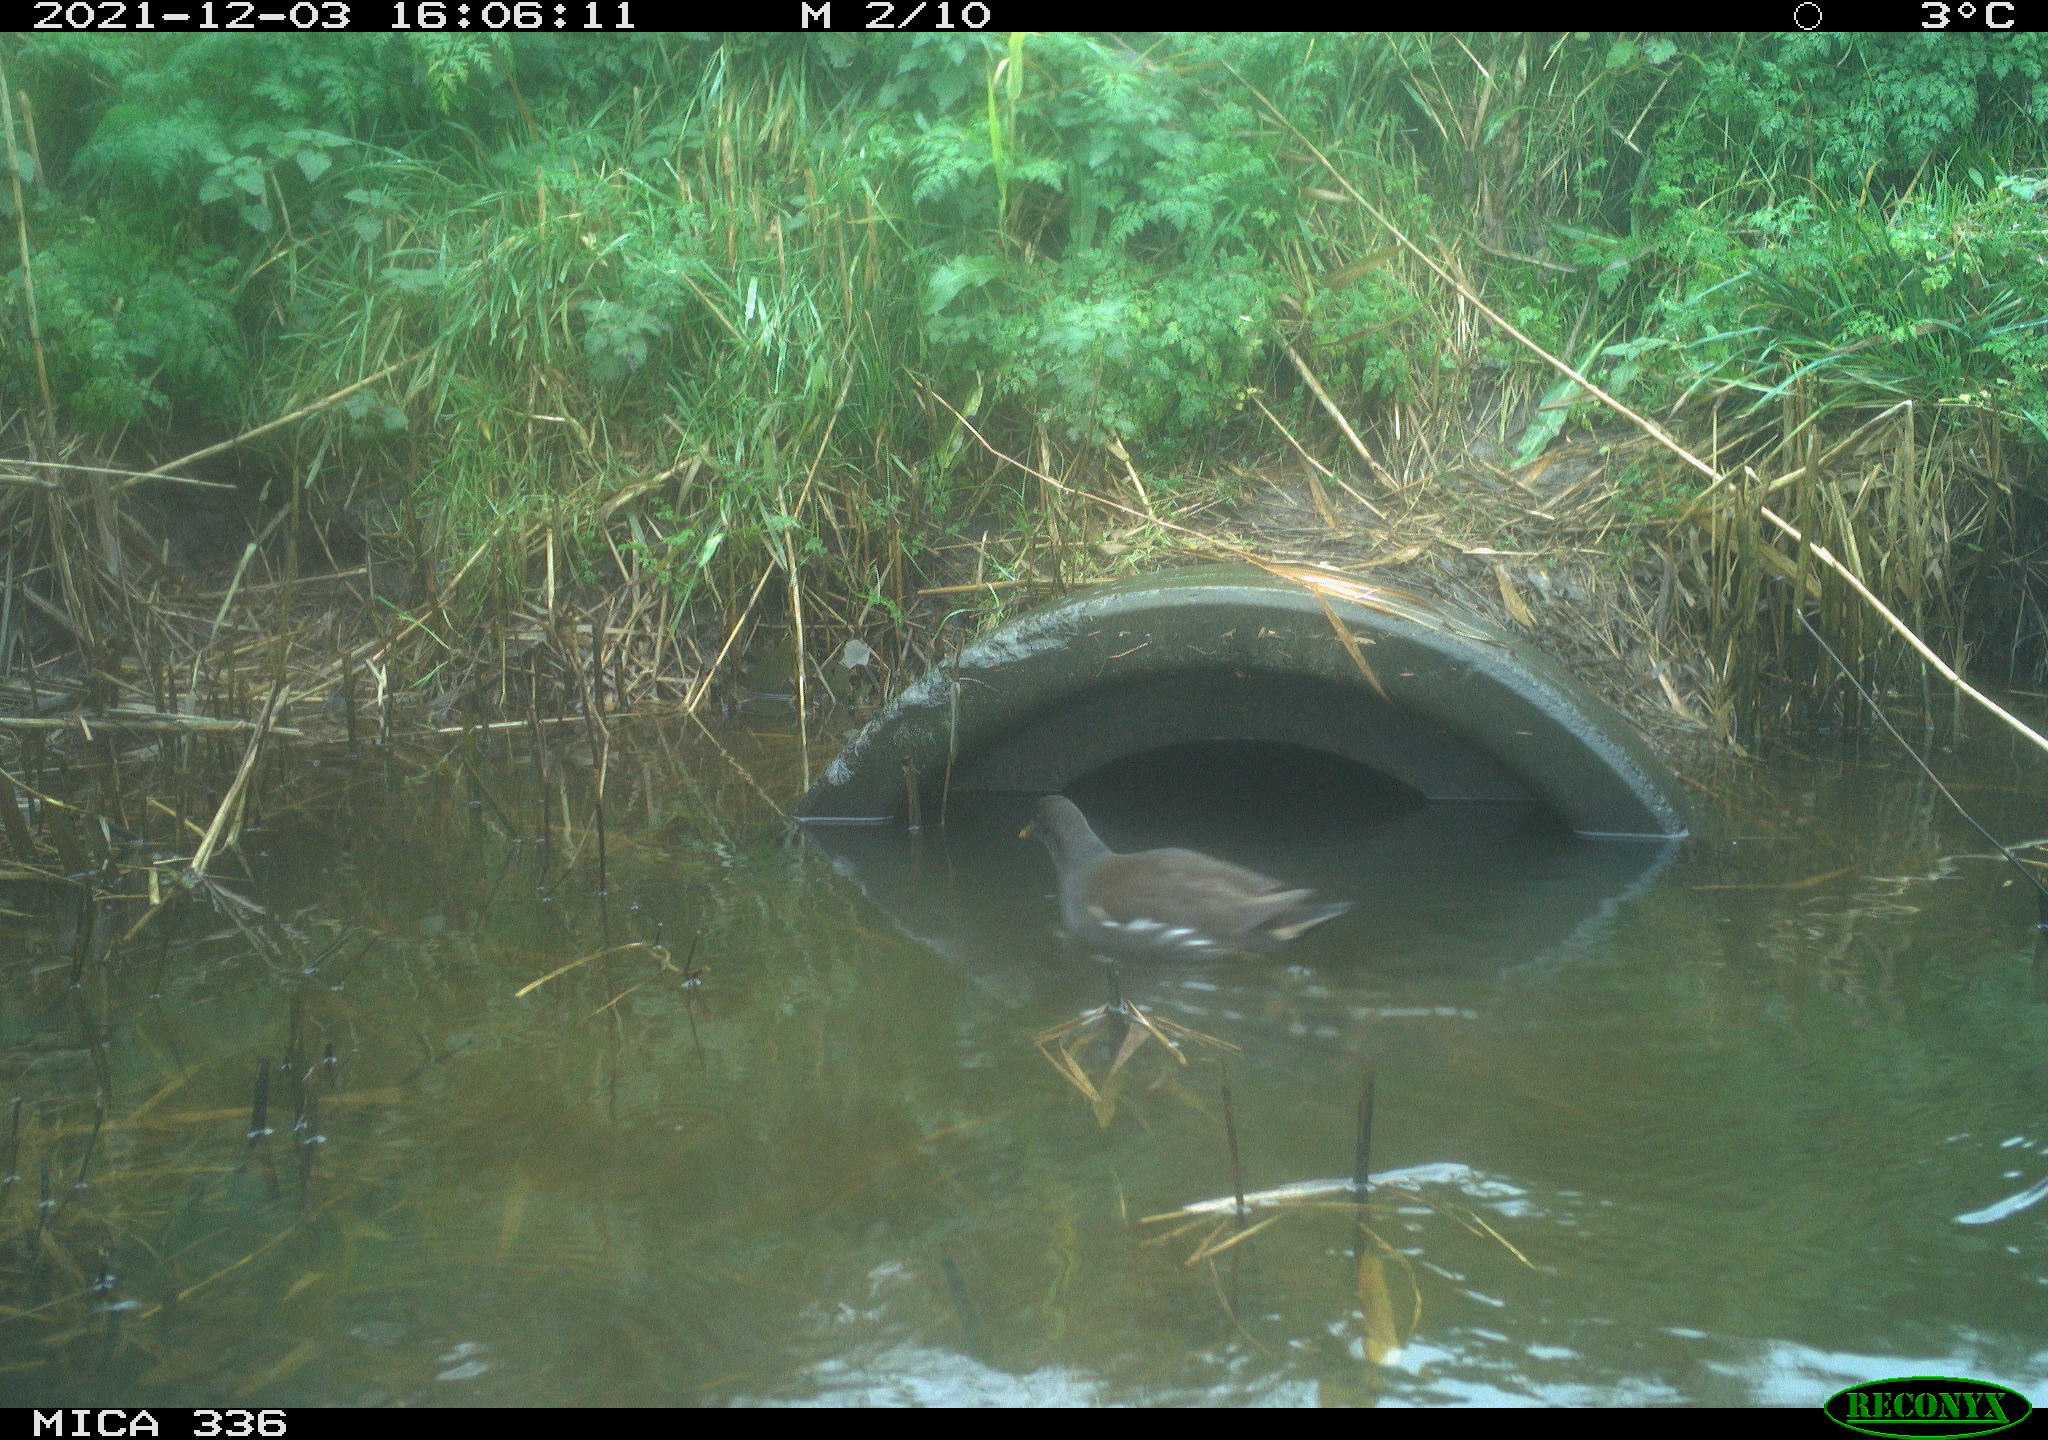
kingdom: Animalia
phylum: Chordata
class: Aves
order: Gruiformes
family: Rallidae
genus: Gallinula
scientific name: Gallinula chloropus
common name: Common moorhen
